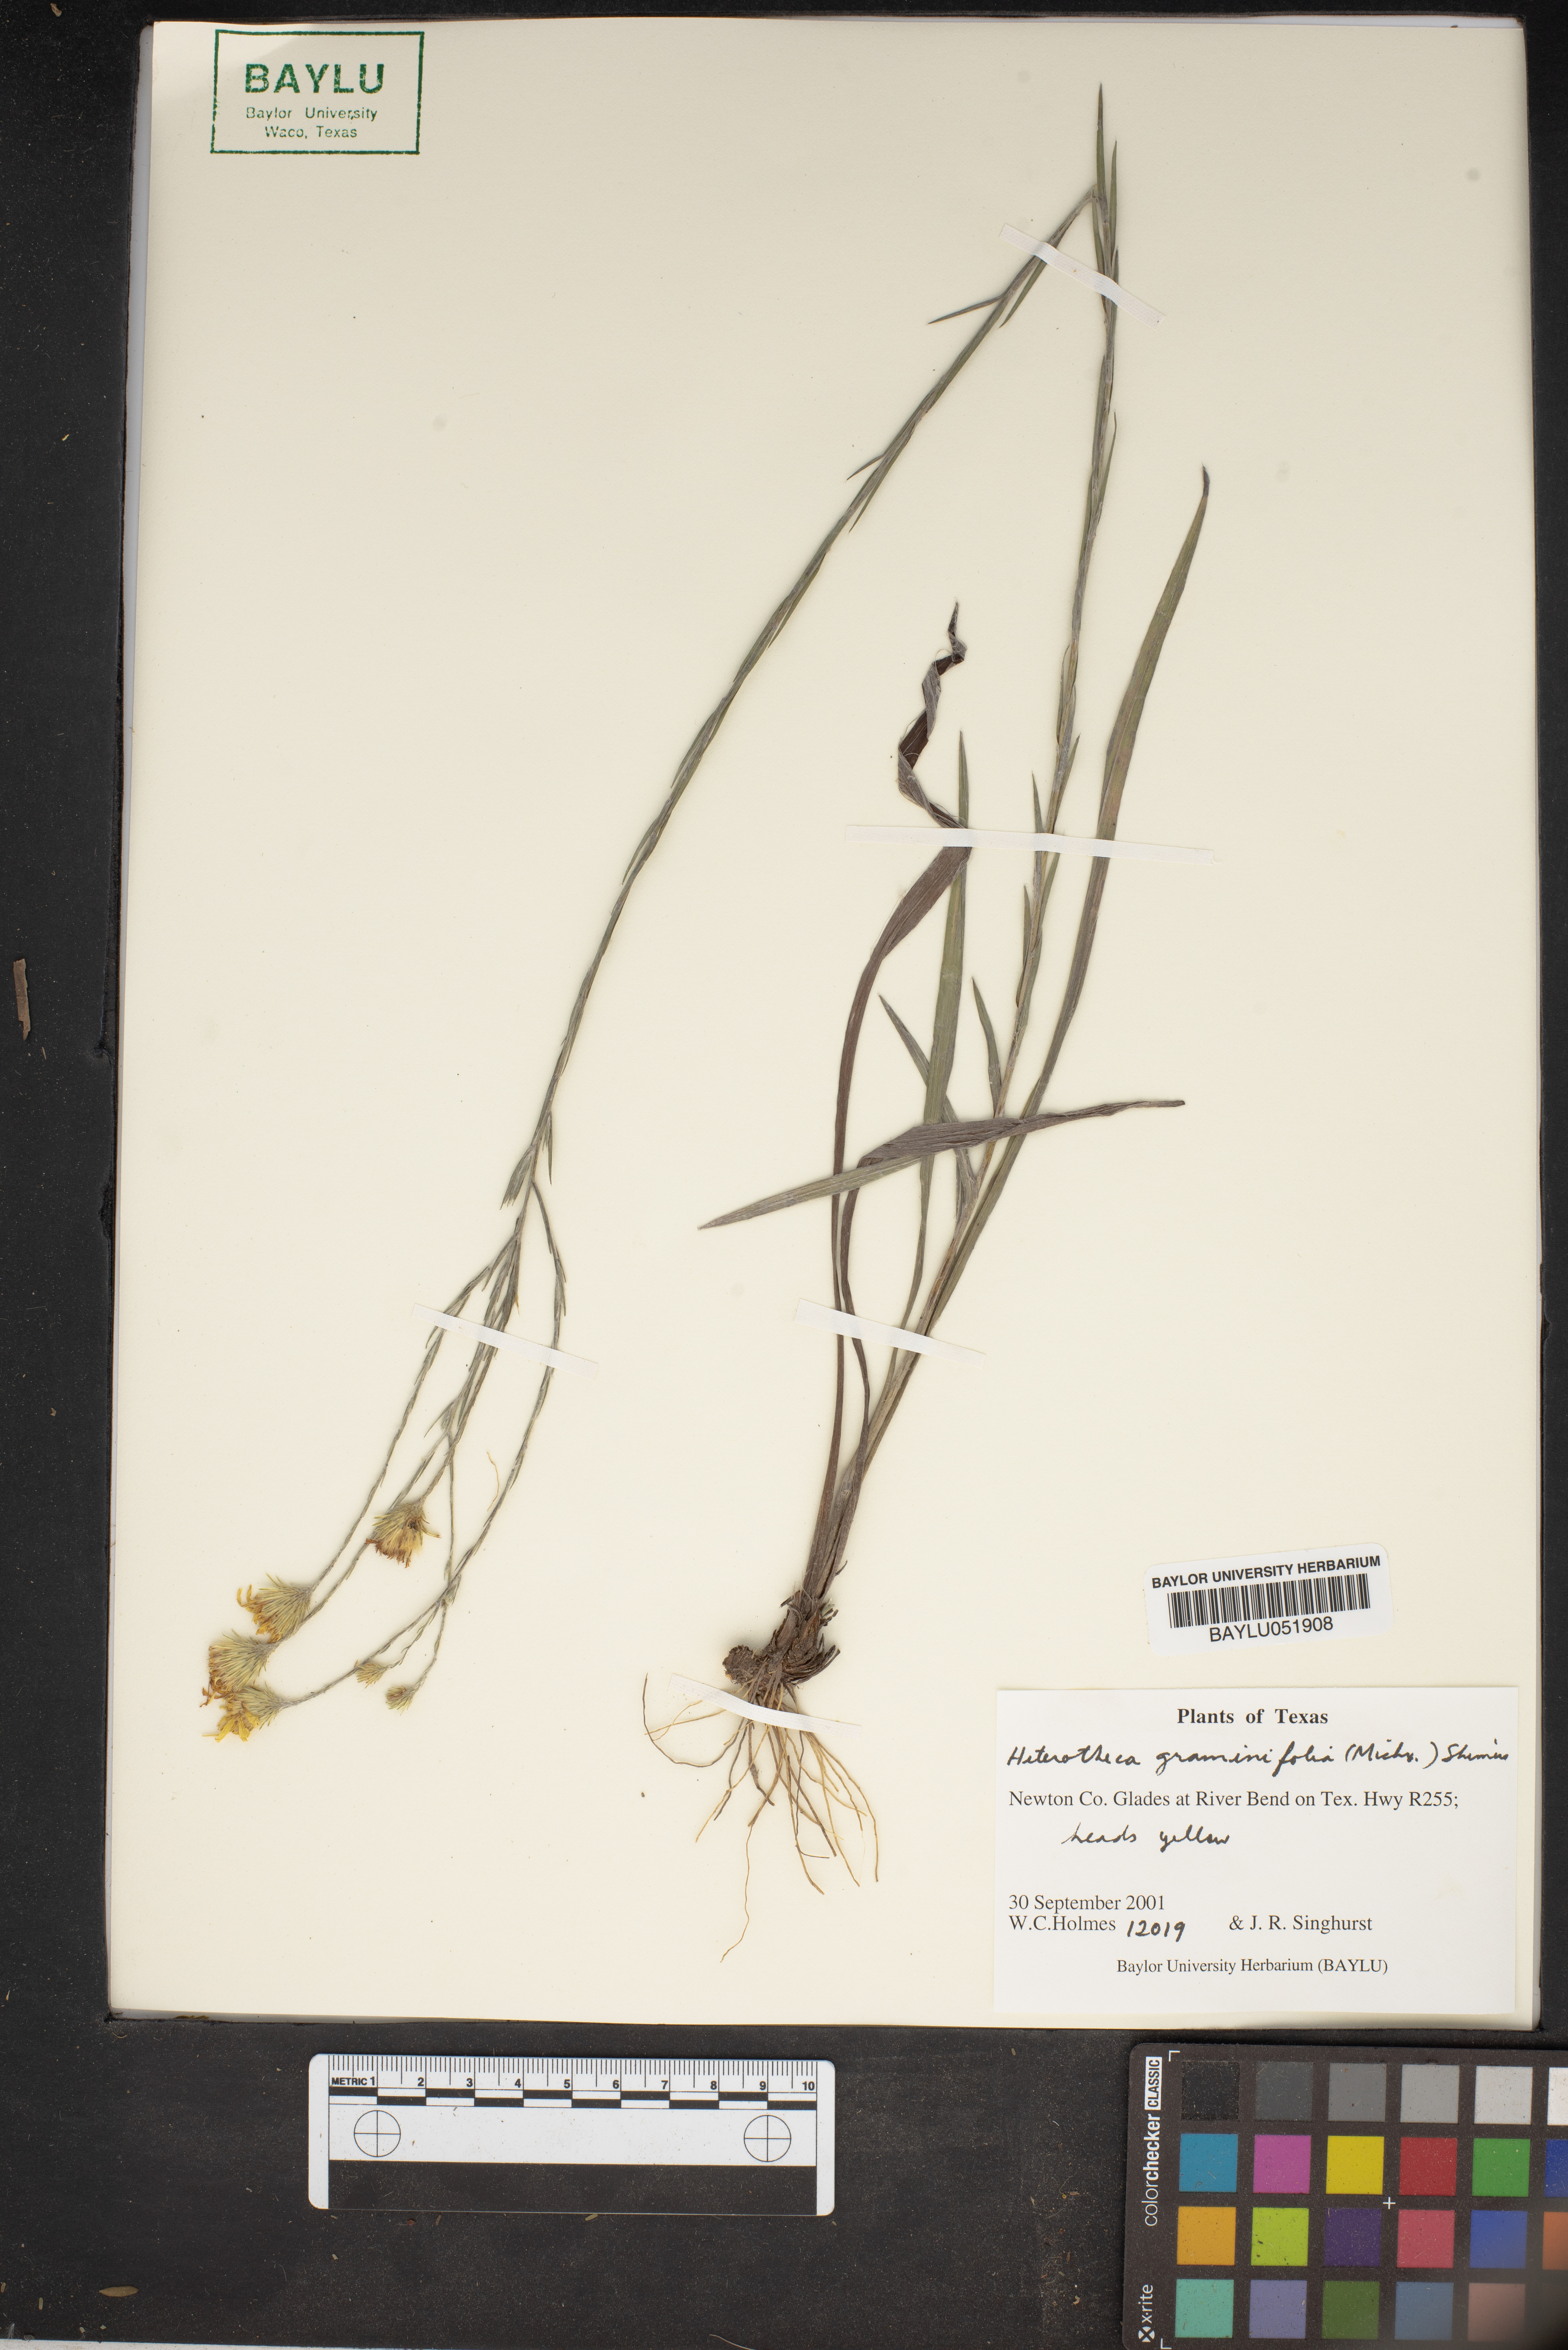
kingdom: Plantae
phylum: Tracheophyta
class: Magnoliopsida
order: Asterales
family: Asteraceae
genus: Pityopsis
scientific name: Pityopsis graminifolia
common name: Grass-leaf golden-aster
